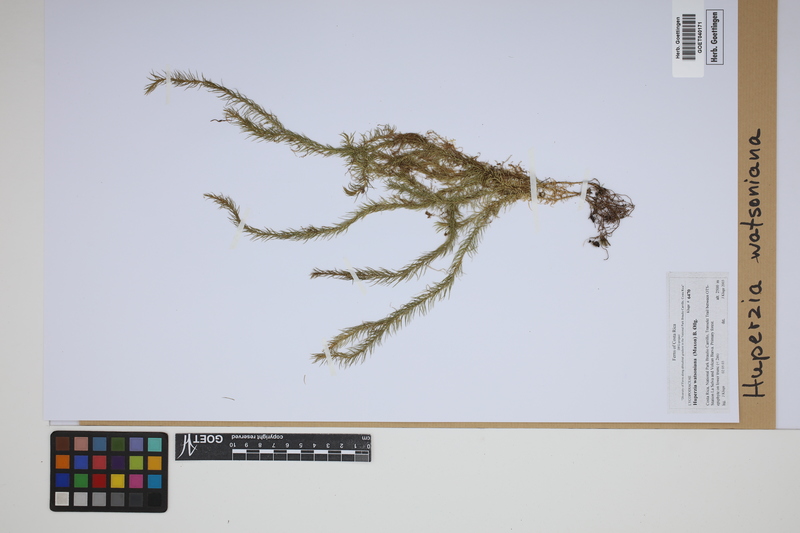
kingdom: Plantae
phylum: Tracheophyta
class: Lycopodiopsida
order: Lycopodiales
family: Lycopodiaceae
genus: Phlegmariurus
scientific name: Phlegmariurus watsonianus
